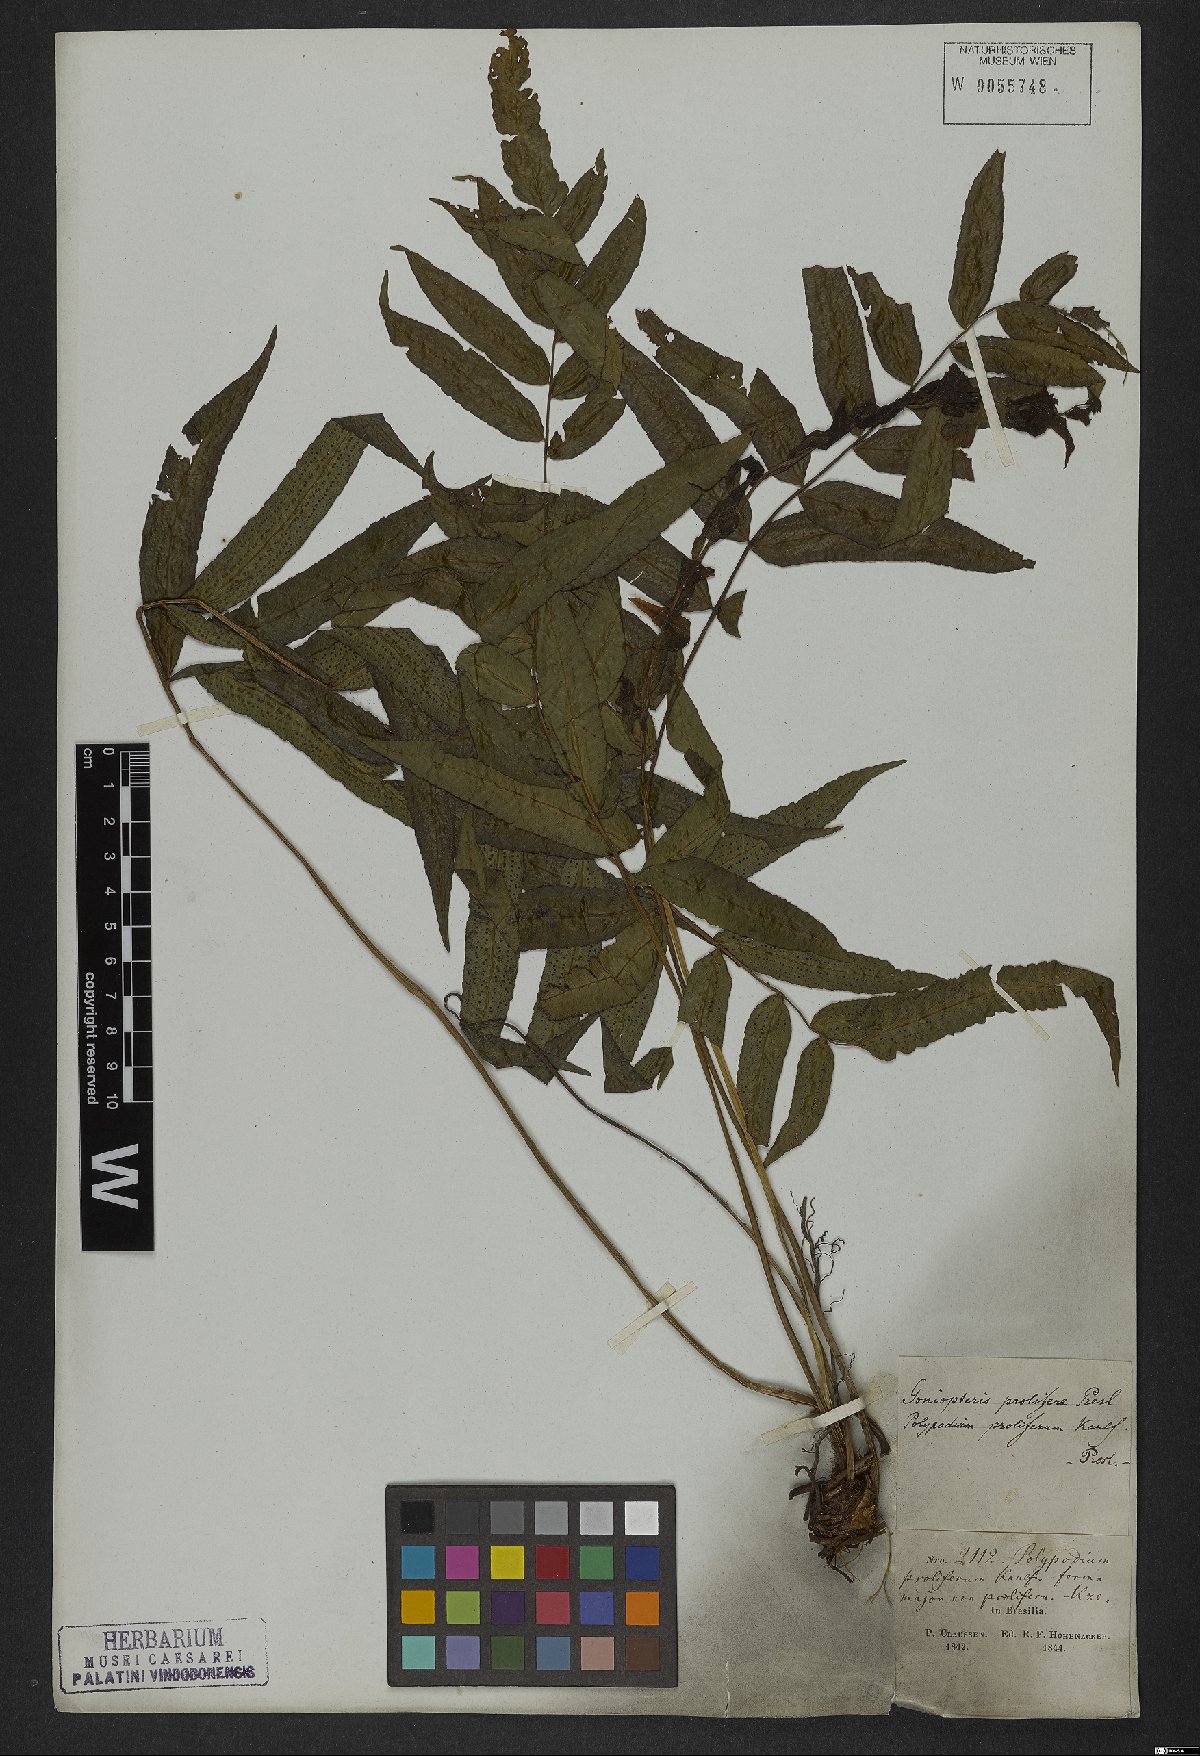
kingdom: Plantae
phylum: Tracheophyta
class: Polypodiopsida
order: Polypodiales
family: Thelypteridaceae
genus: Goniopteris
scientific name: Goniopteris vivipara
